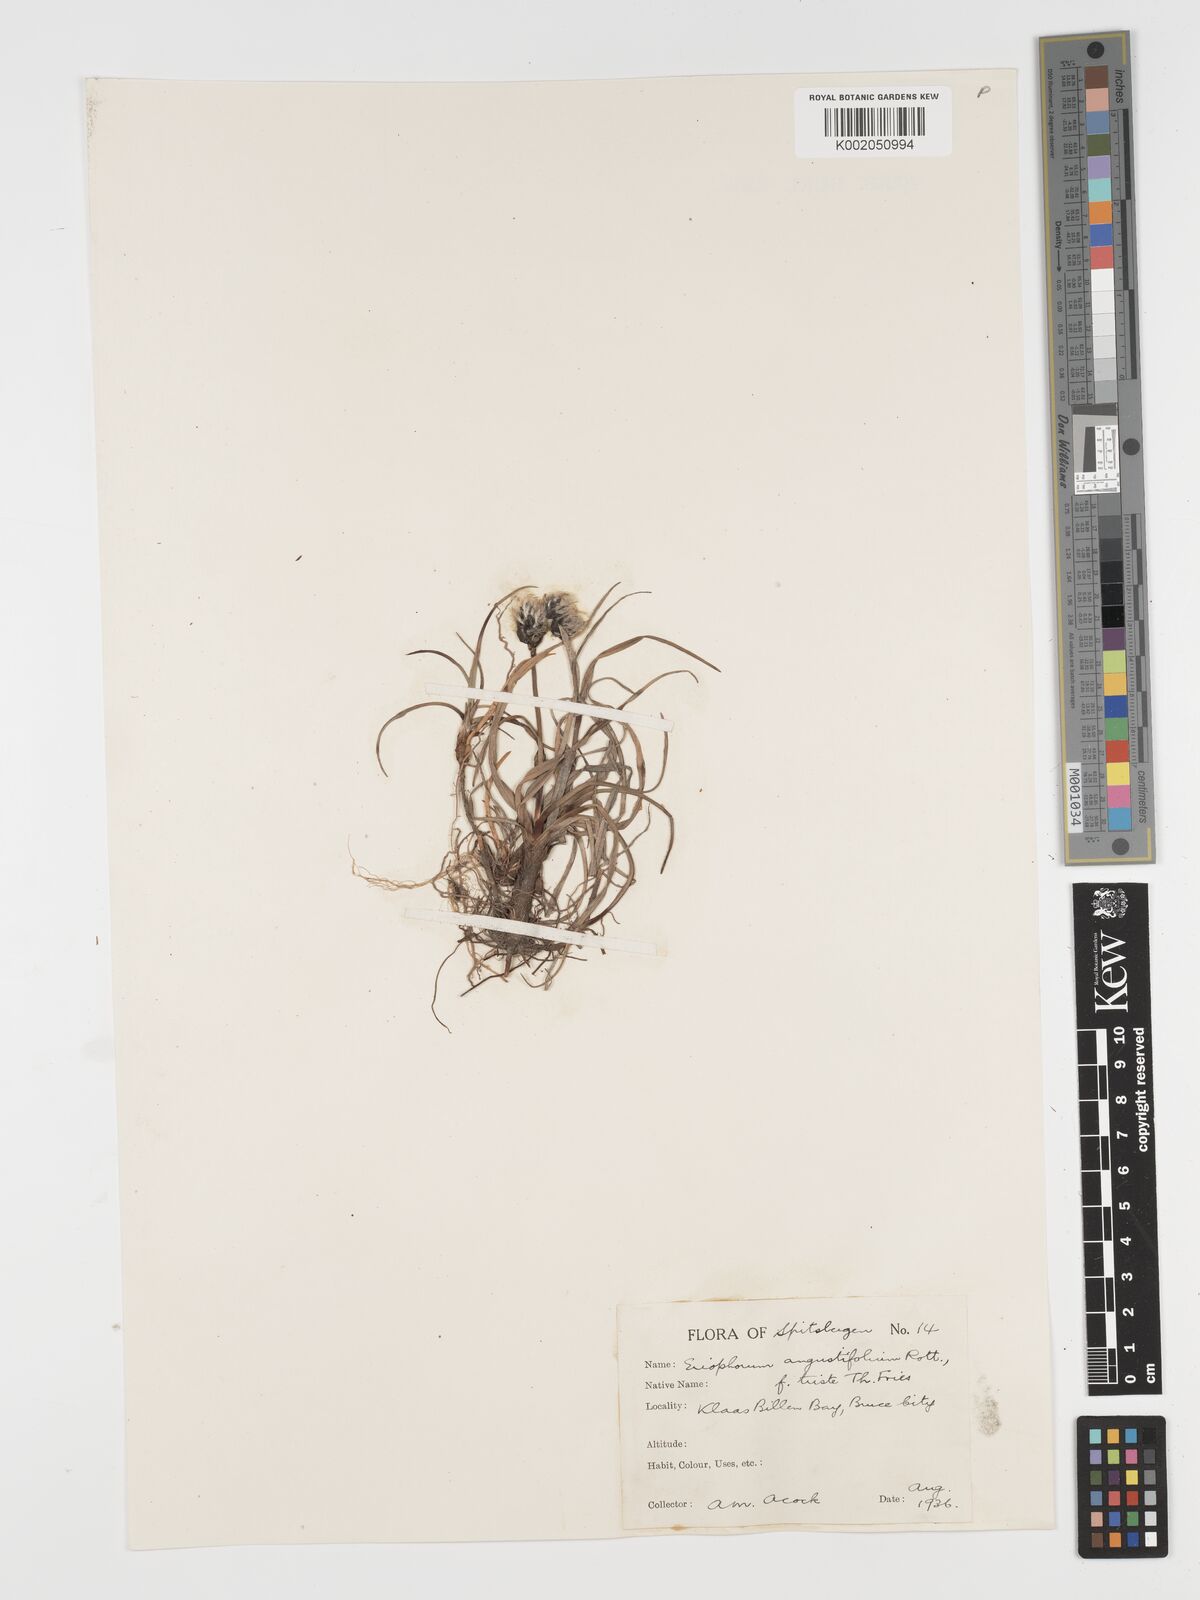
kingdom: Plantae
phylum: Tracheophyta
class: Liliopsida
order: Poales
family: Cyperaceae
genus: Eriophorum
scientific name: Eriophorum angustifolium
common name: Common cottongrass
